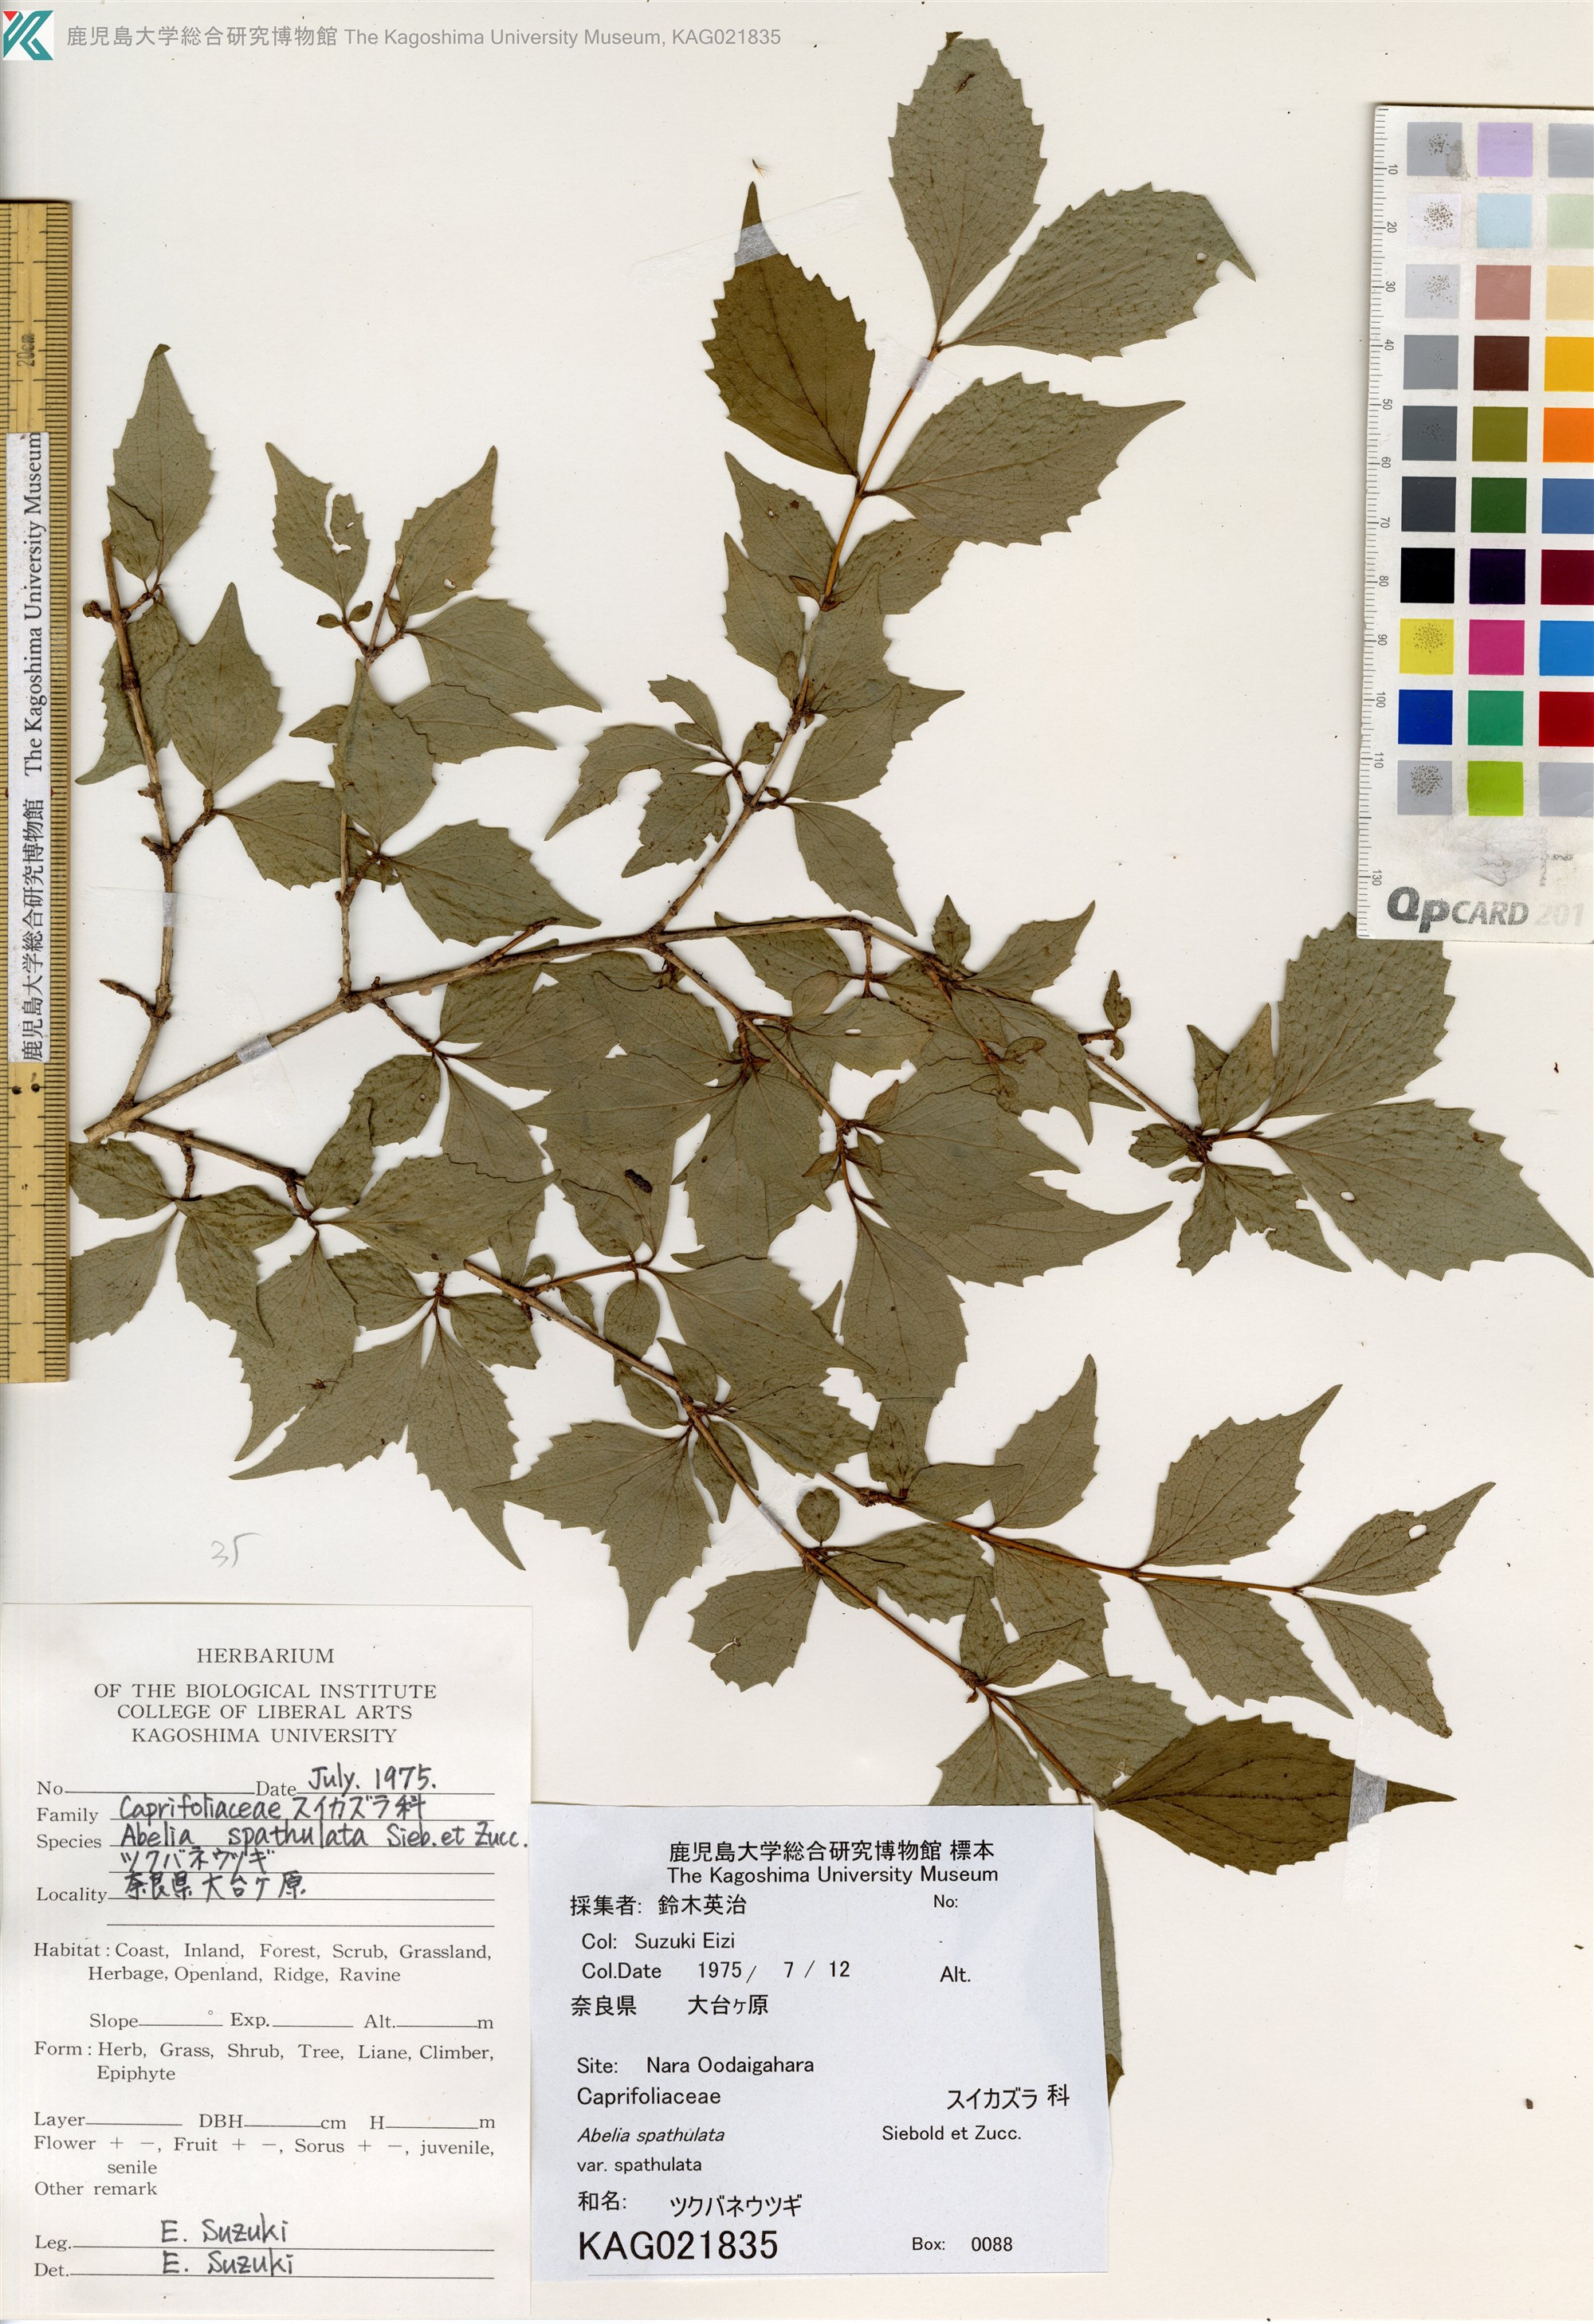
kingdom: Plantae
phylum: Tracheophyta
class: Magnoliopsida
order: Dipsacales
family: Caprifoliaceae
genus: Diabelia
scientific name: Diabelia spathulata
